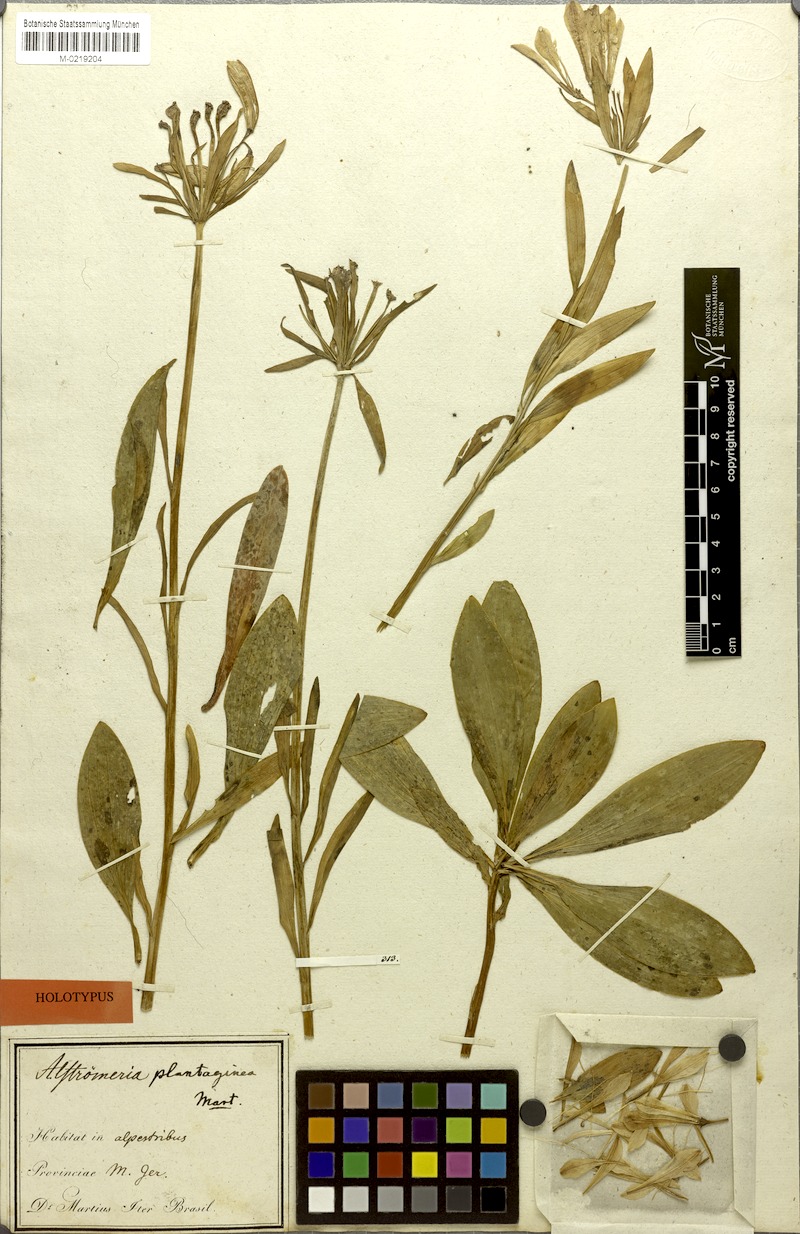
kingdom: Plantae
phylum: Tracheophyta
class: Liliopsida
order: Liliales
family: Alstroemeriaceae
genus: Alstroemeria
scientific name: Alstroemeria plantaginea
